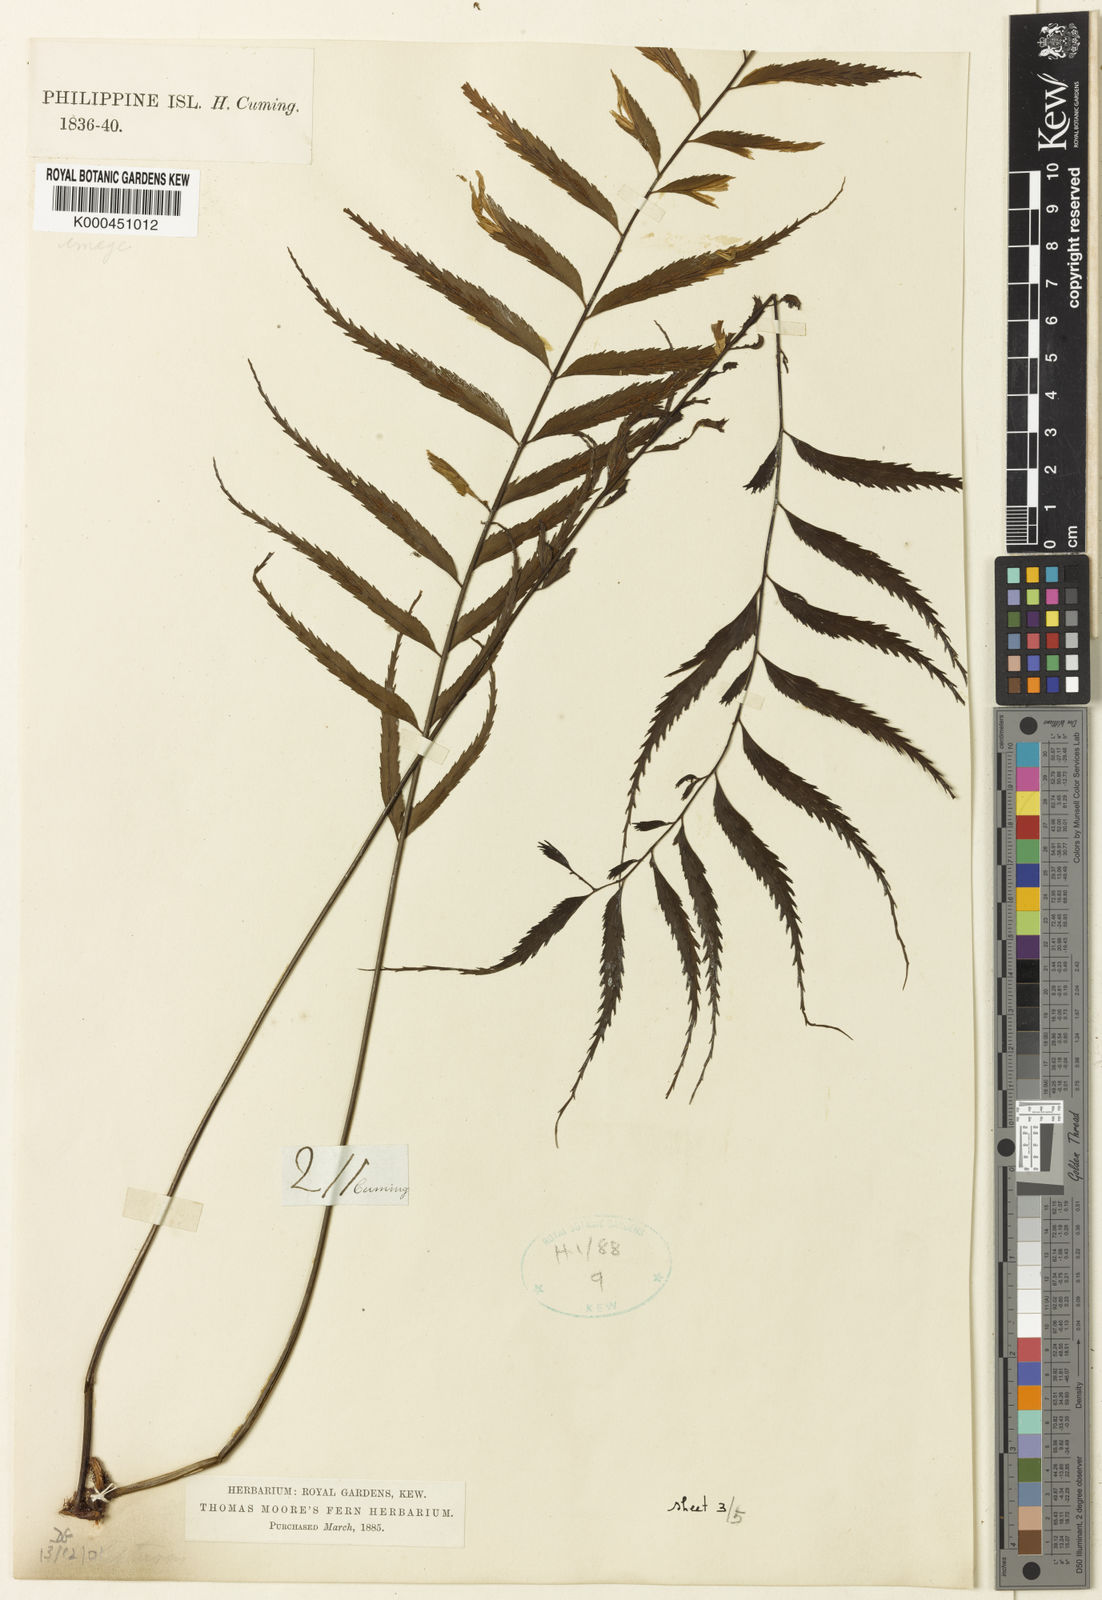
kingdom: Plantae
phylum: Tracheophyta
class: Polypodiopsida
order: Polypodiales
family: Aspleniaceae
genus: Asplenium
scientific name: Asplenium
